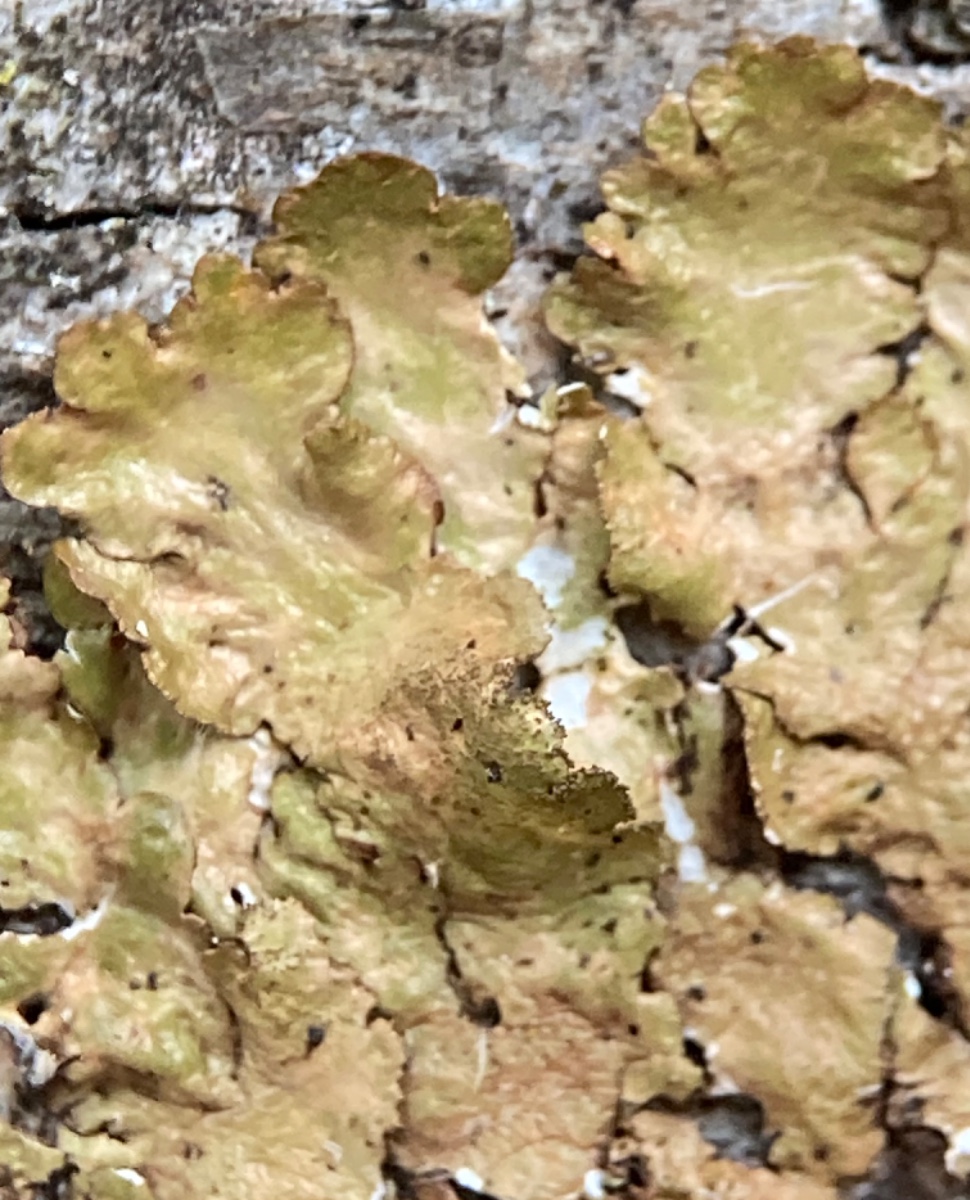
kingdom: Fungi
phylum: Ascomycota
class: Lecanoromycetes
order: Lecanorales
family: Parmeliaceae
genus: Melanelixia
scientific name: Melanelixia subaurifera
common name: guldpudret skållav
